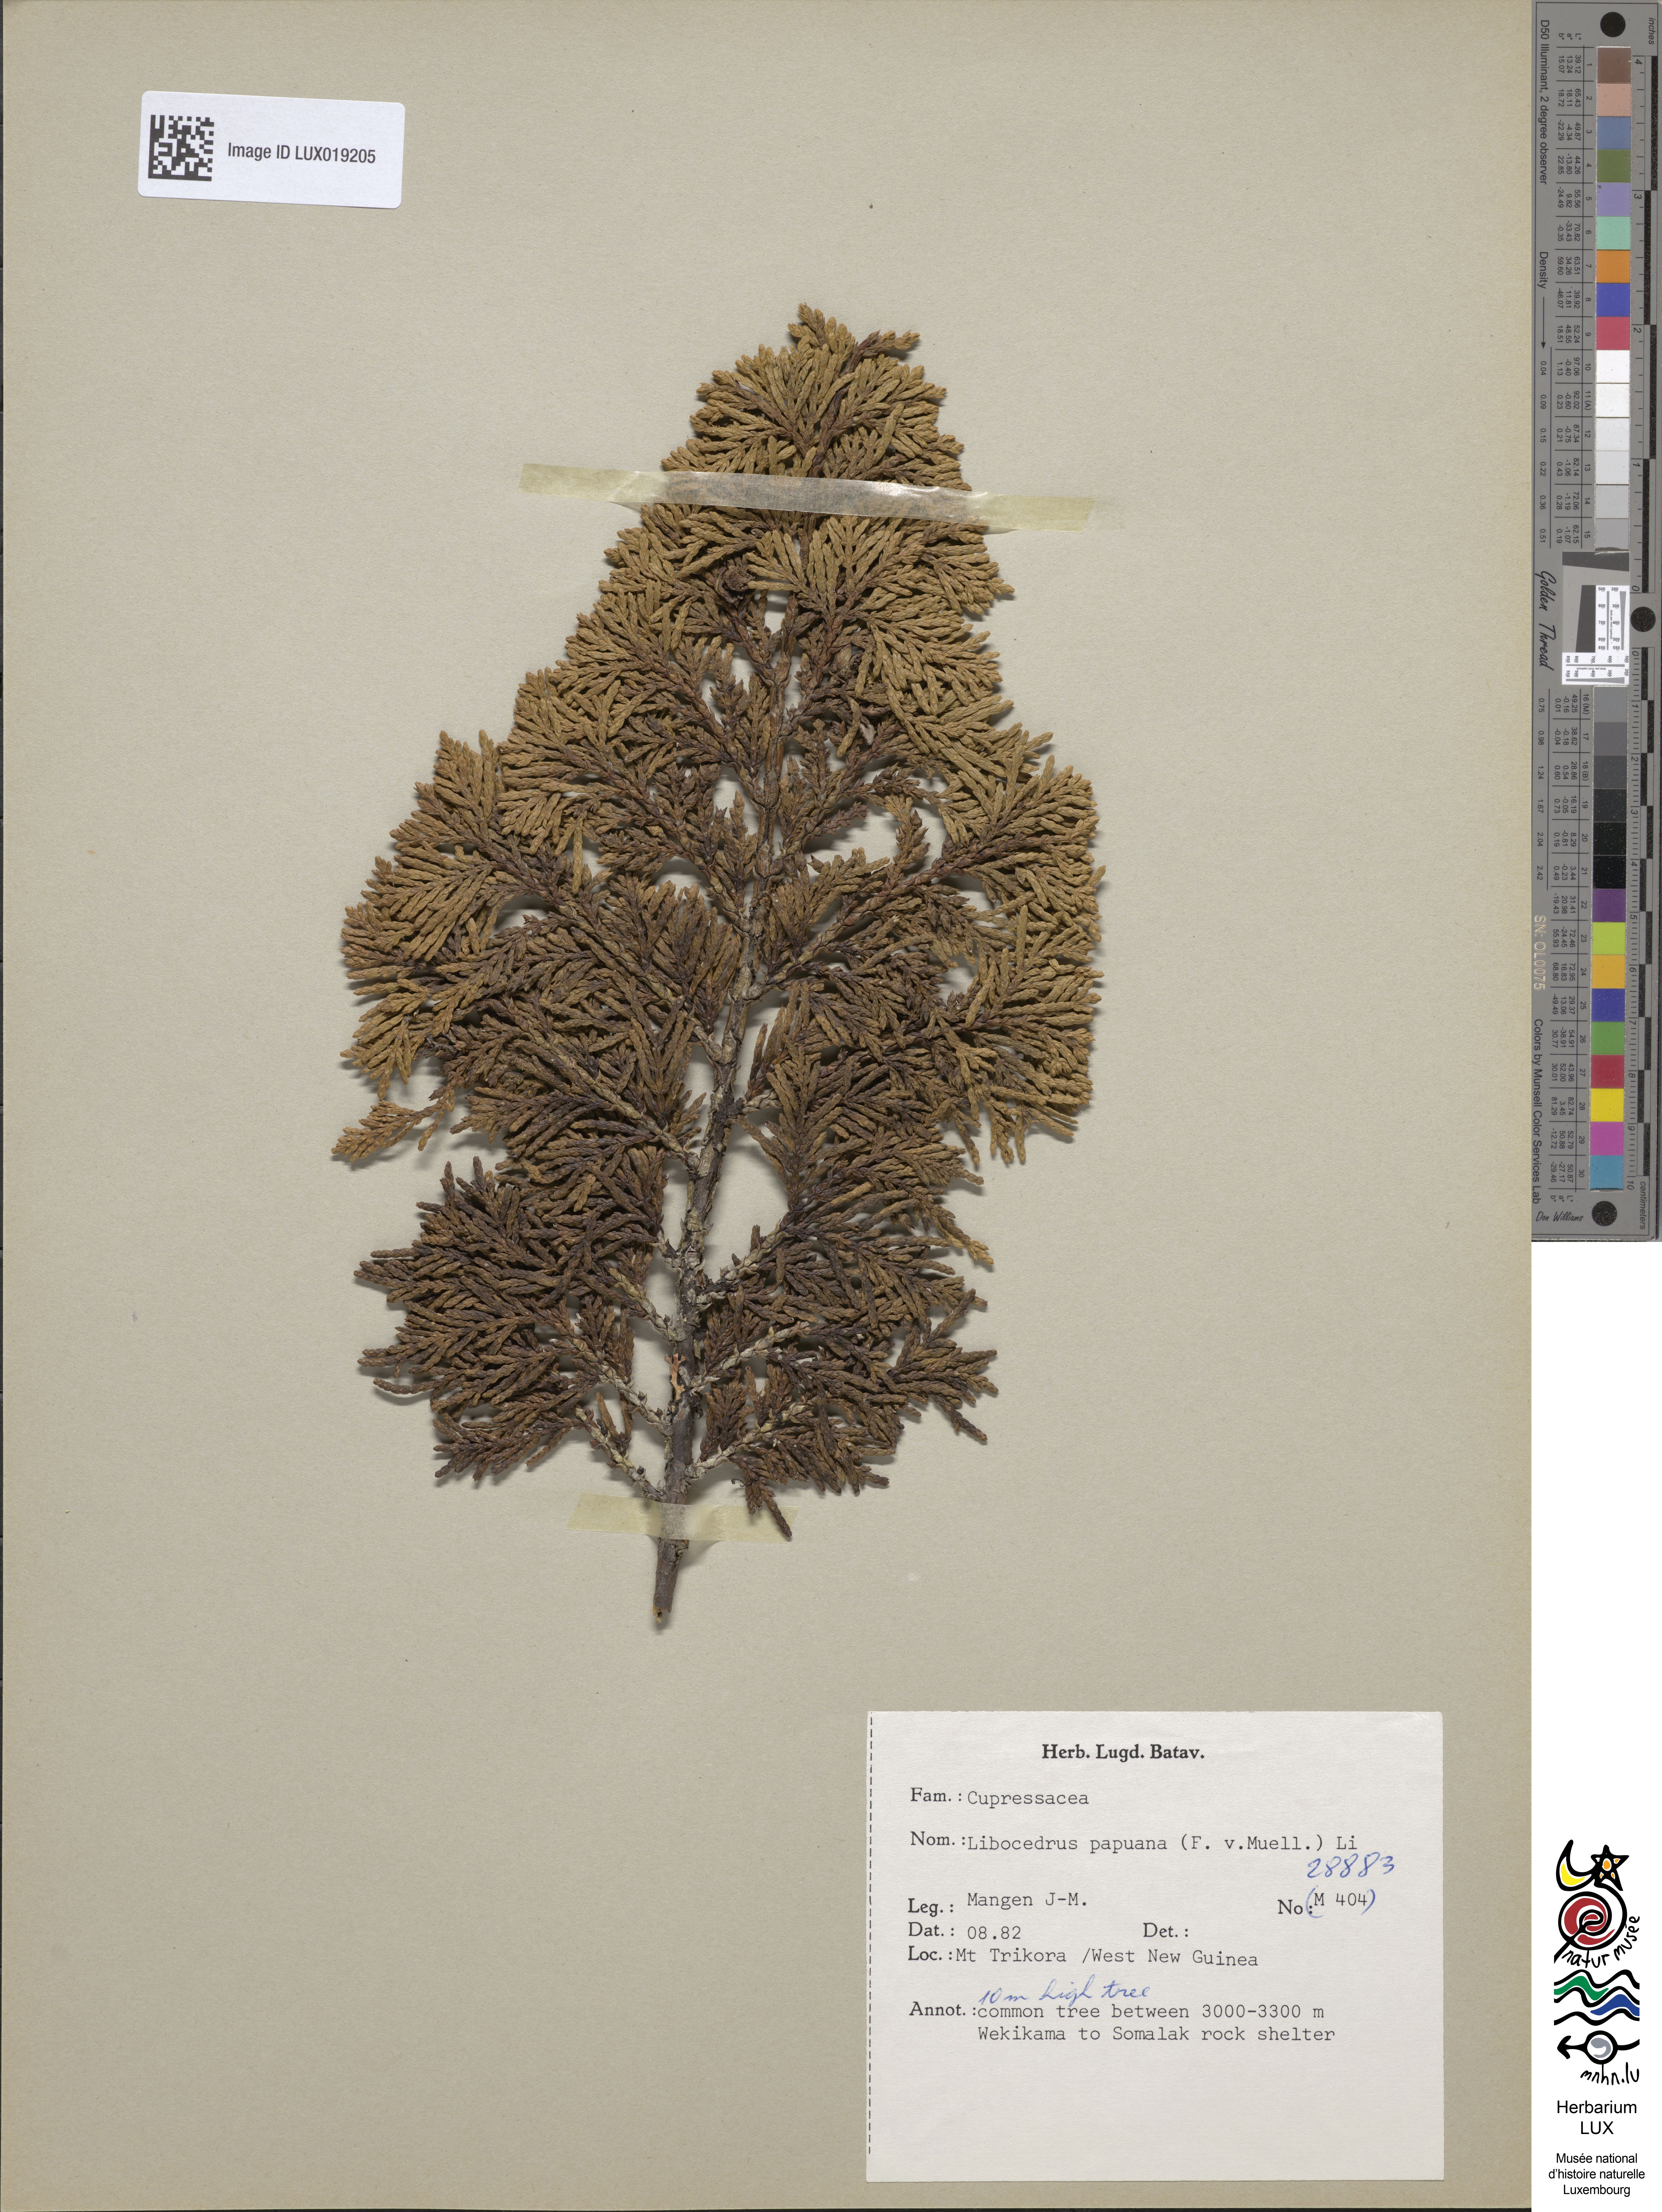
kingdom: Plantae
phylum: Tracheophyta
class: Pinopsida
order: Pinales
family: Cupressaceae
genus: Papuacedrus
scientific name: Papuacedrus papuana
